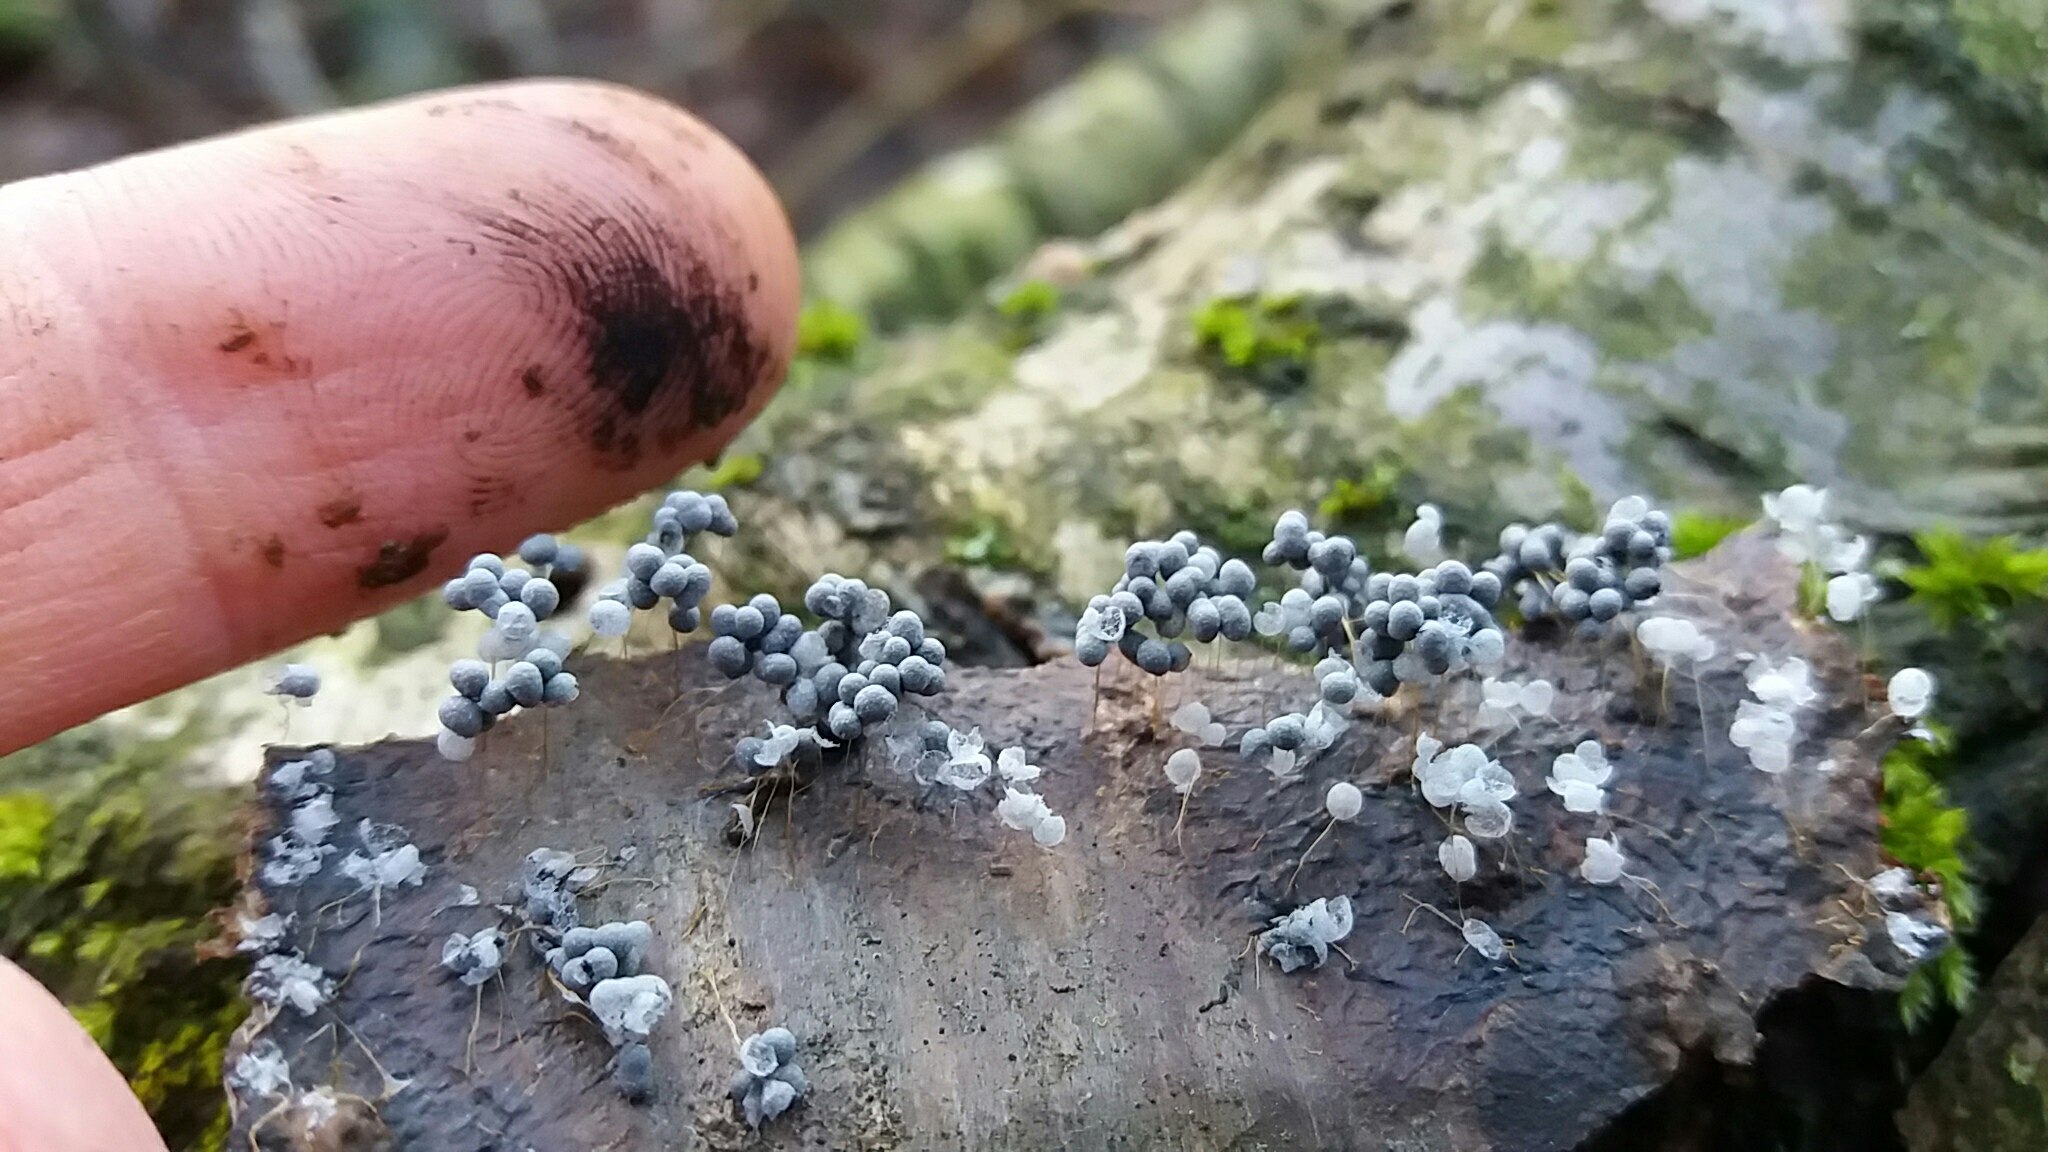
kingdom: Protozoa
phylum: Mycetozoa
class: Myxomycetes
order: Physarales
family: Physaraceae
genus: Badhamia
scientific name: Badhamia utricularis
